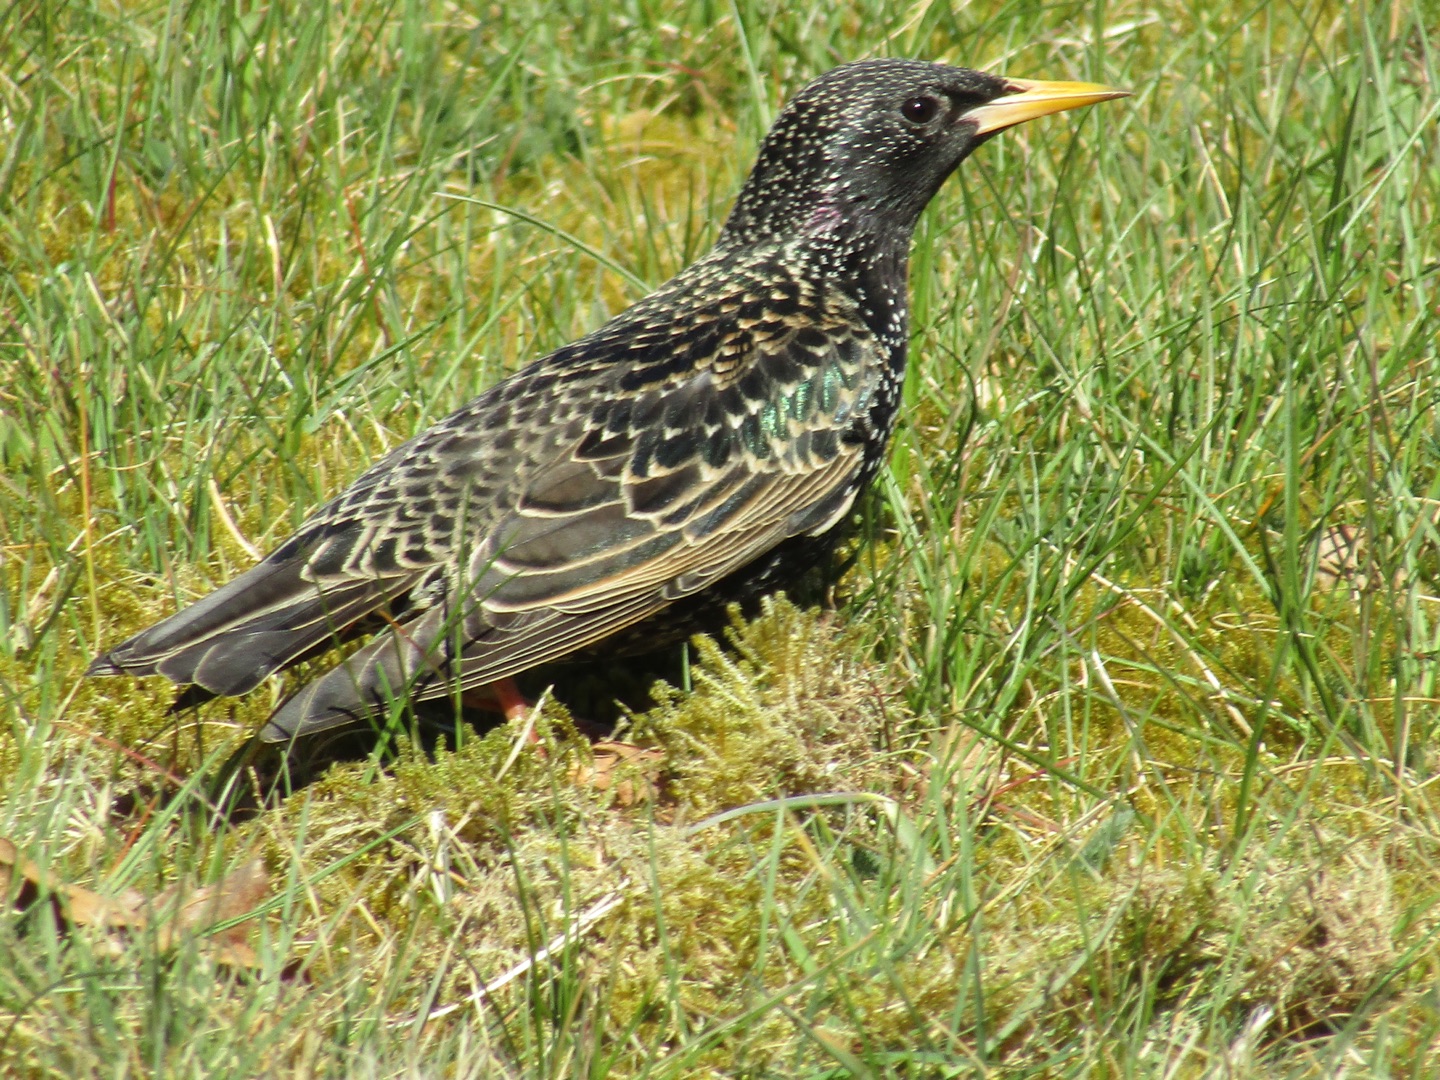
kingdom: Animalia
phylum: Chordata
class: Aves
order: Passeriformes
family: Sturnidae
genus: Sturnus
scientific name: Sturnus vulgaris
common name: Stær
